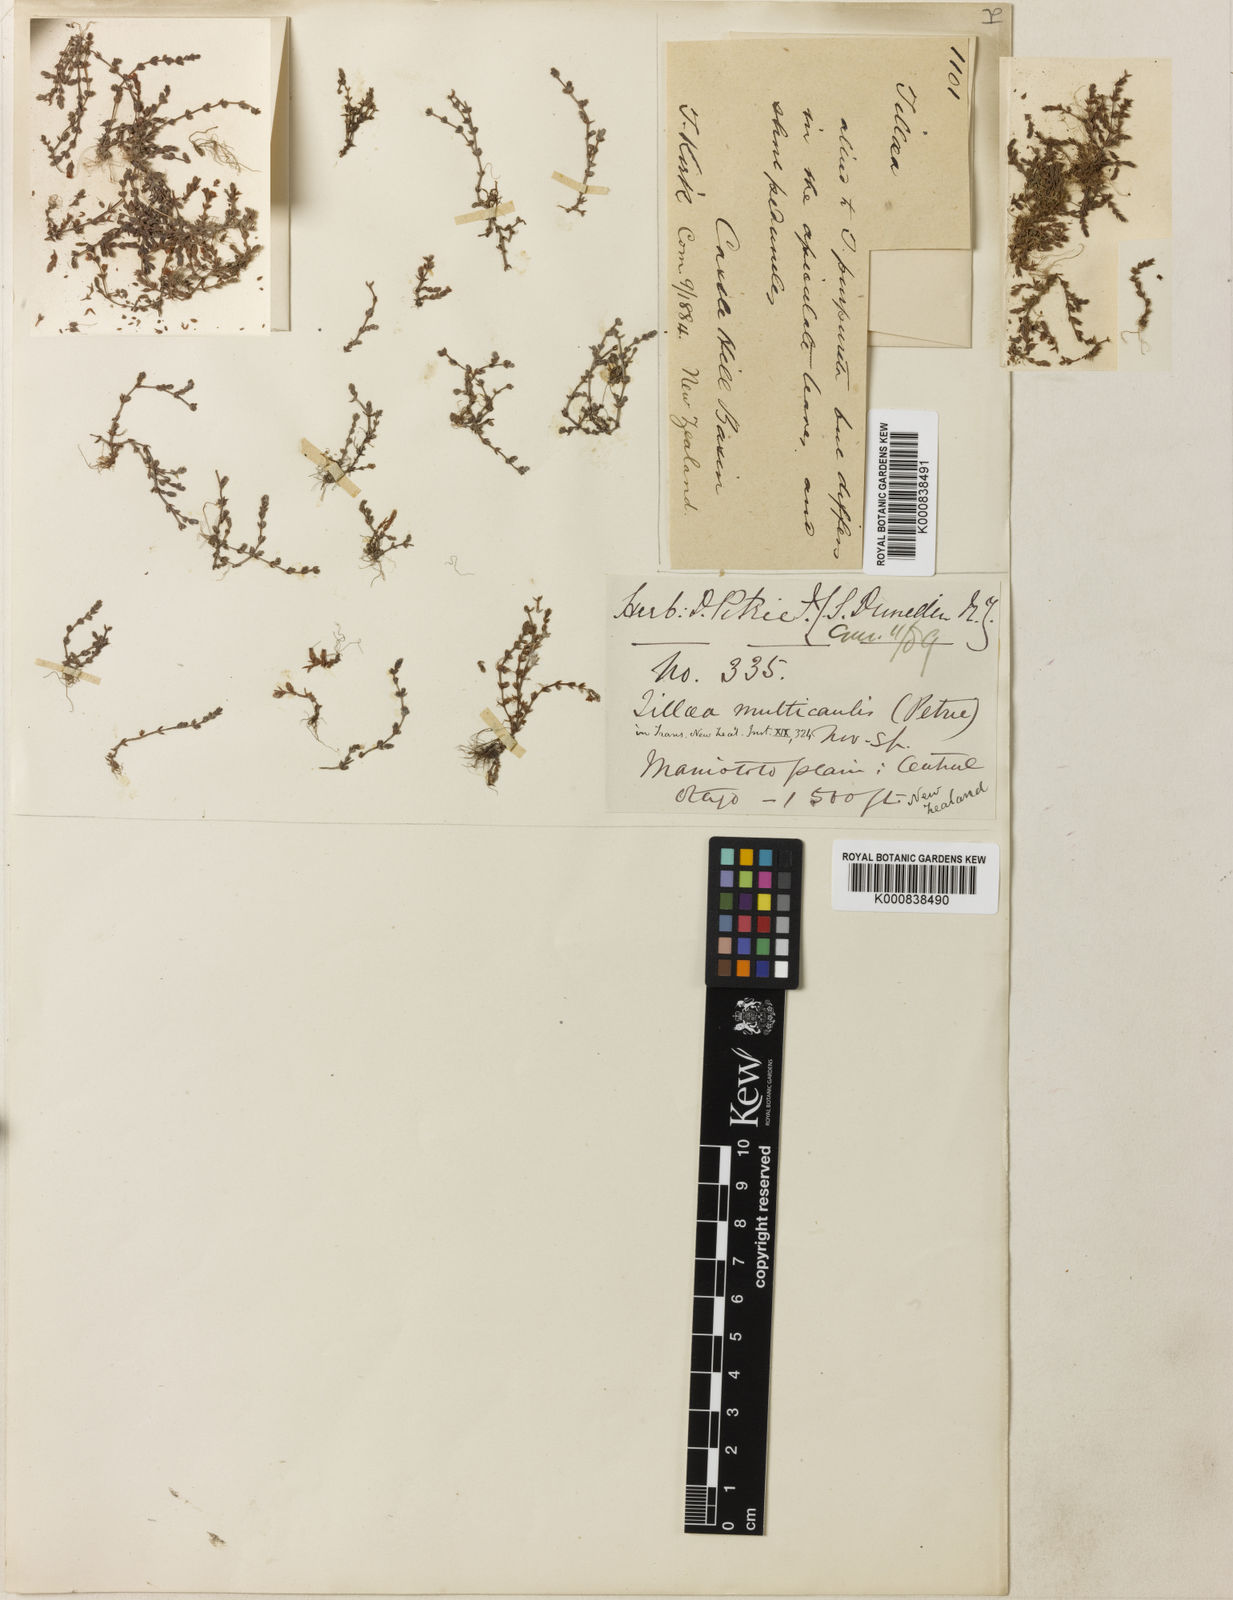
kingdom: Plantae
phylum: Tracheophyta
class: Magnoliopsida
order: Saxifragales
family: Crassulaceae
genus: Crassula
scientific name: Crassula multicaulis
